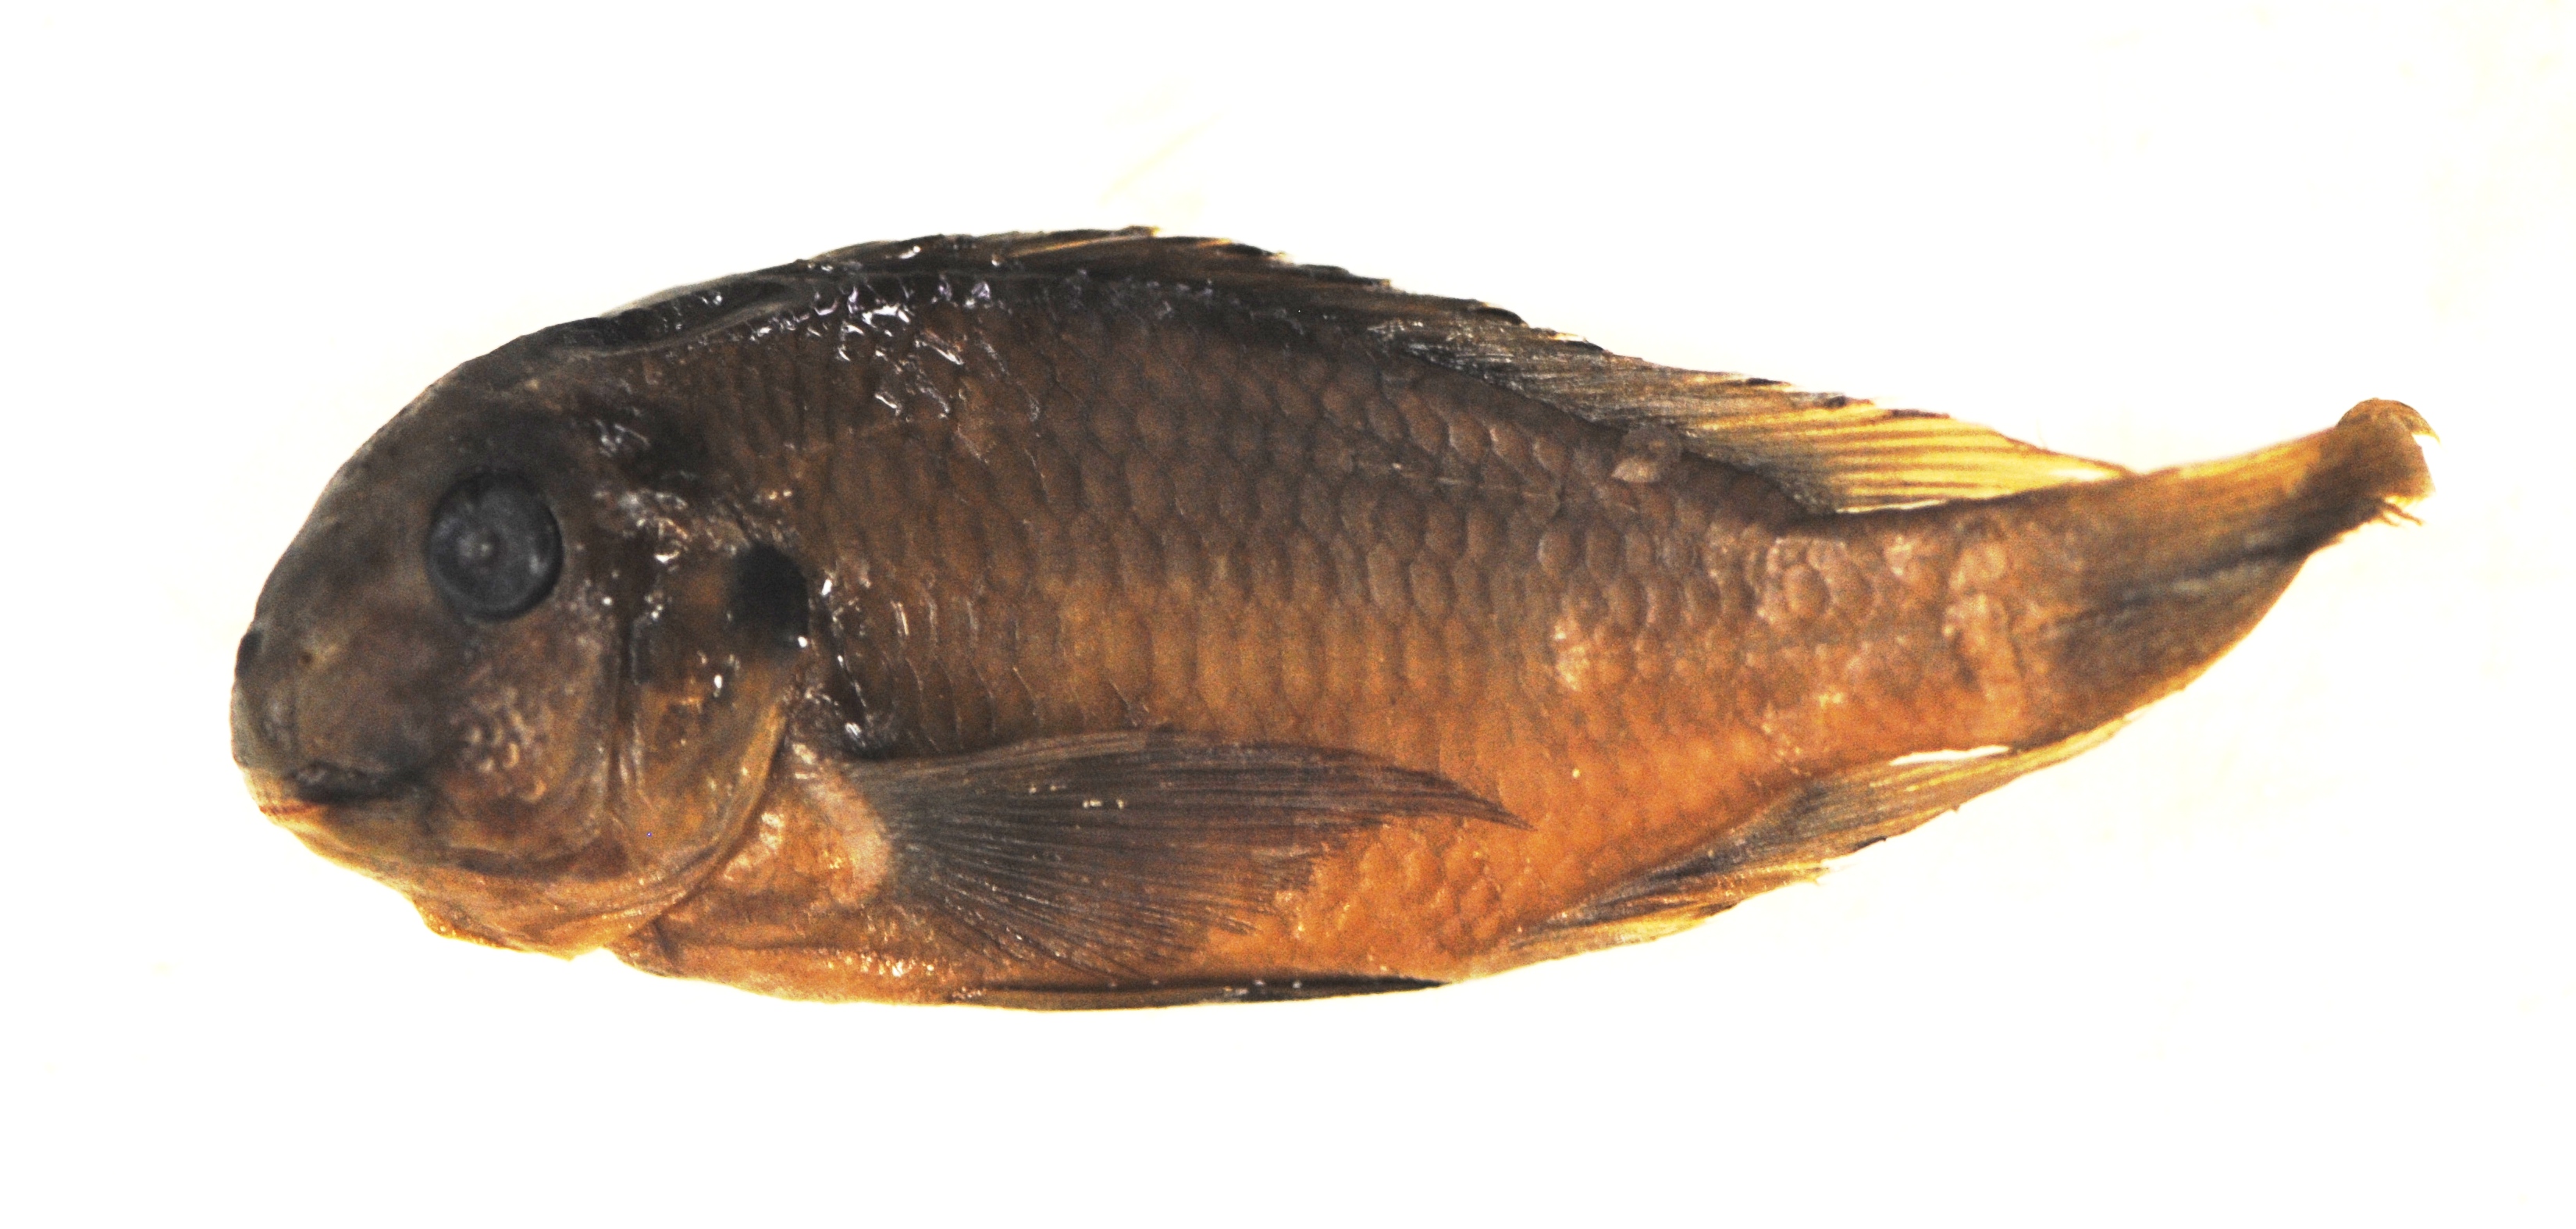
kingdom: Animalia
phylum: Chordata
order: Perciformes
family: Cichlidae
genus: Tropheus
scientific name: Tropheus polli
